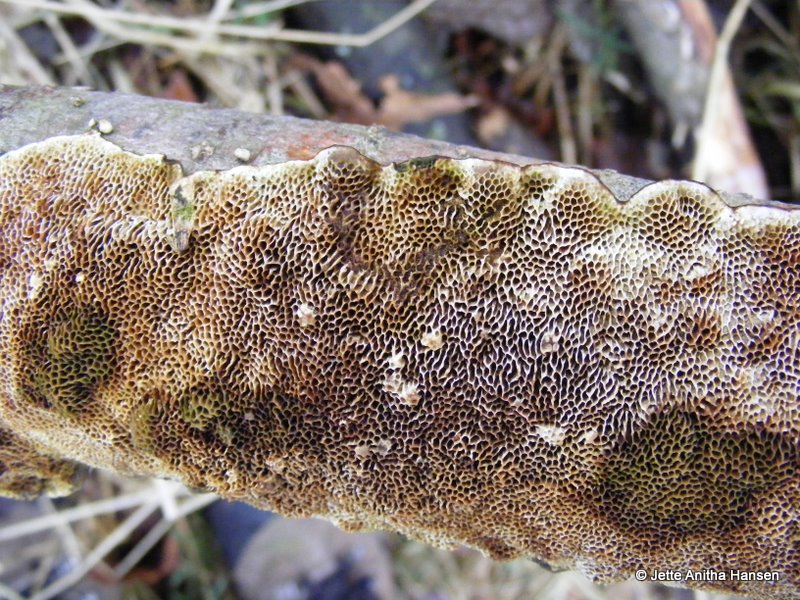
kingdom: Fungi
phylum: Basidiomycota
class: Agaricomycetes
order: Polyporales
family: Polyporaceae
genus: Podofomes
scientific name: Podofomes mollis
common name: blød begporesvamp
